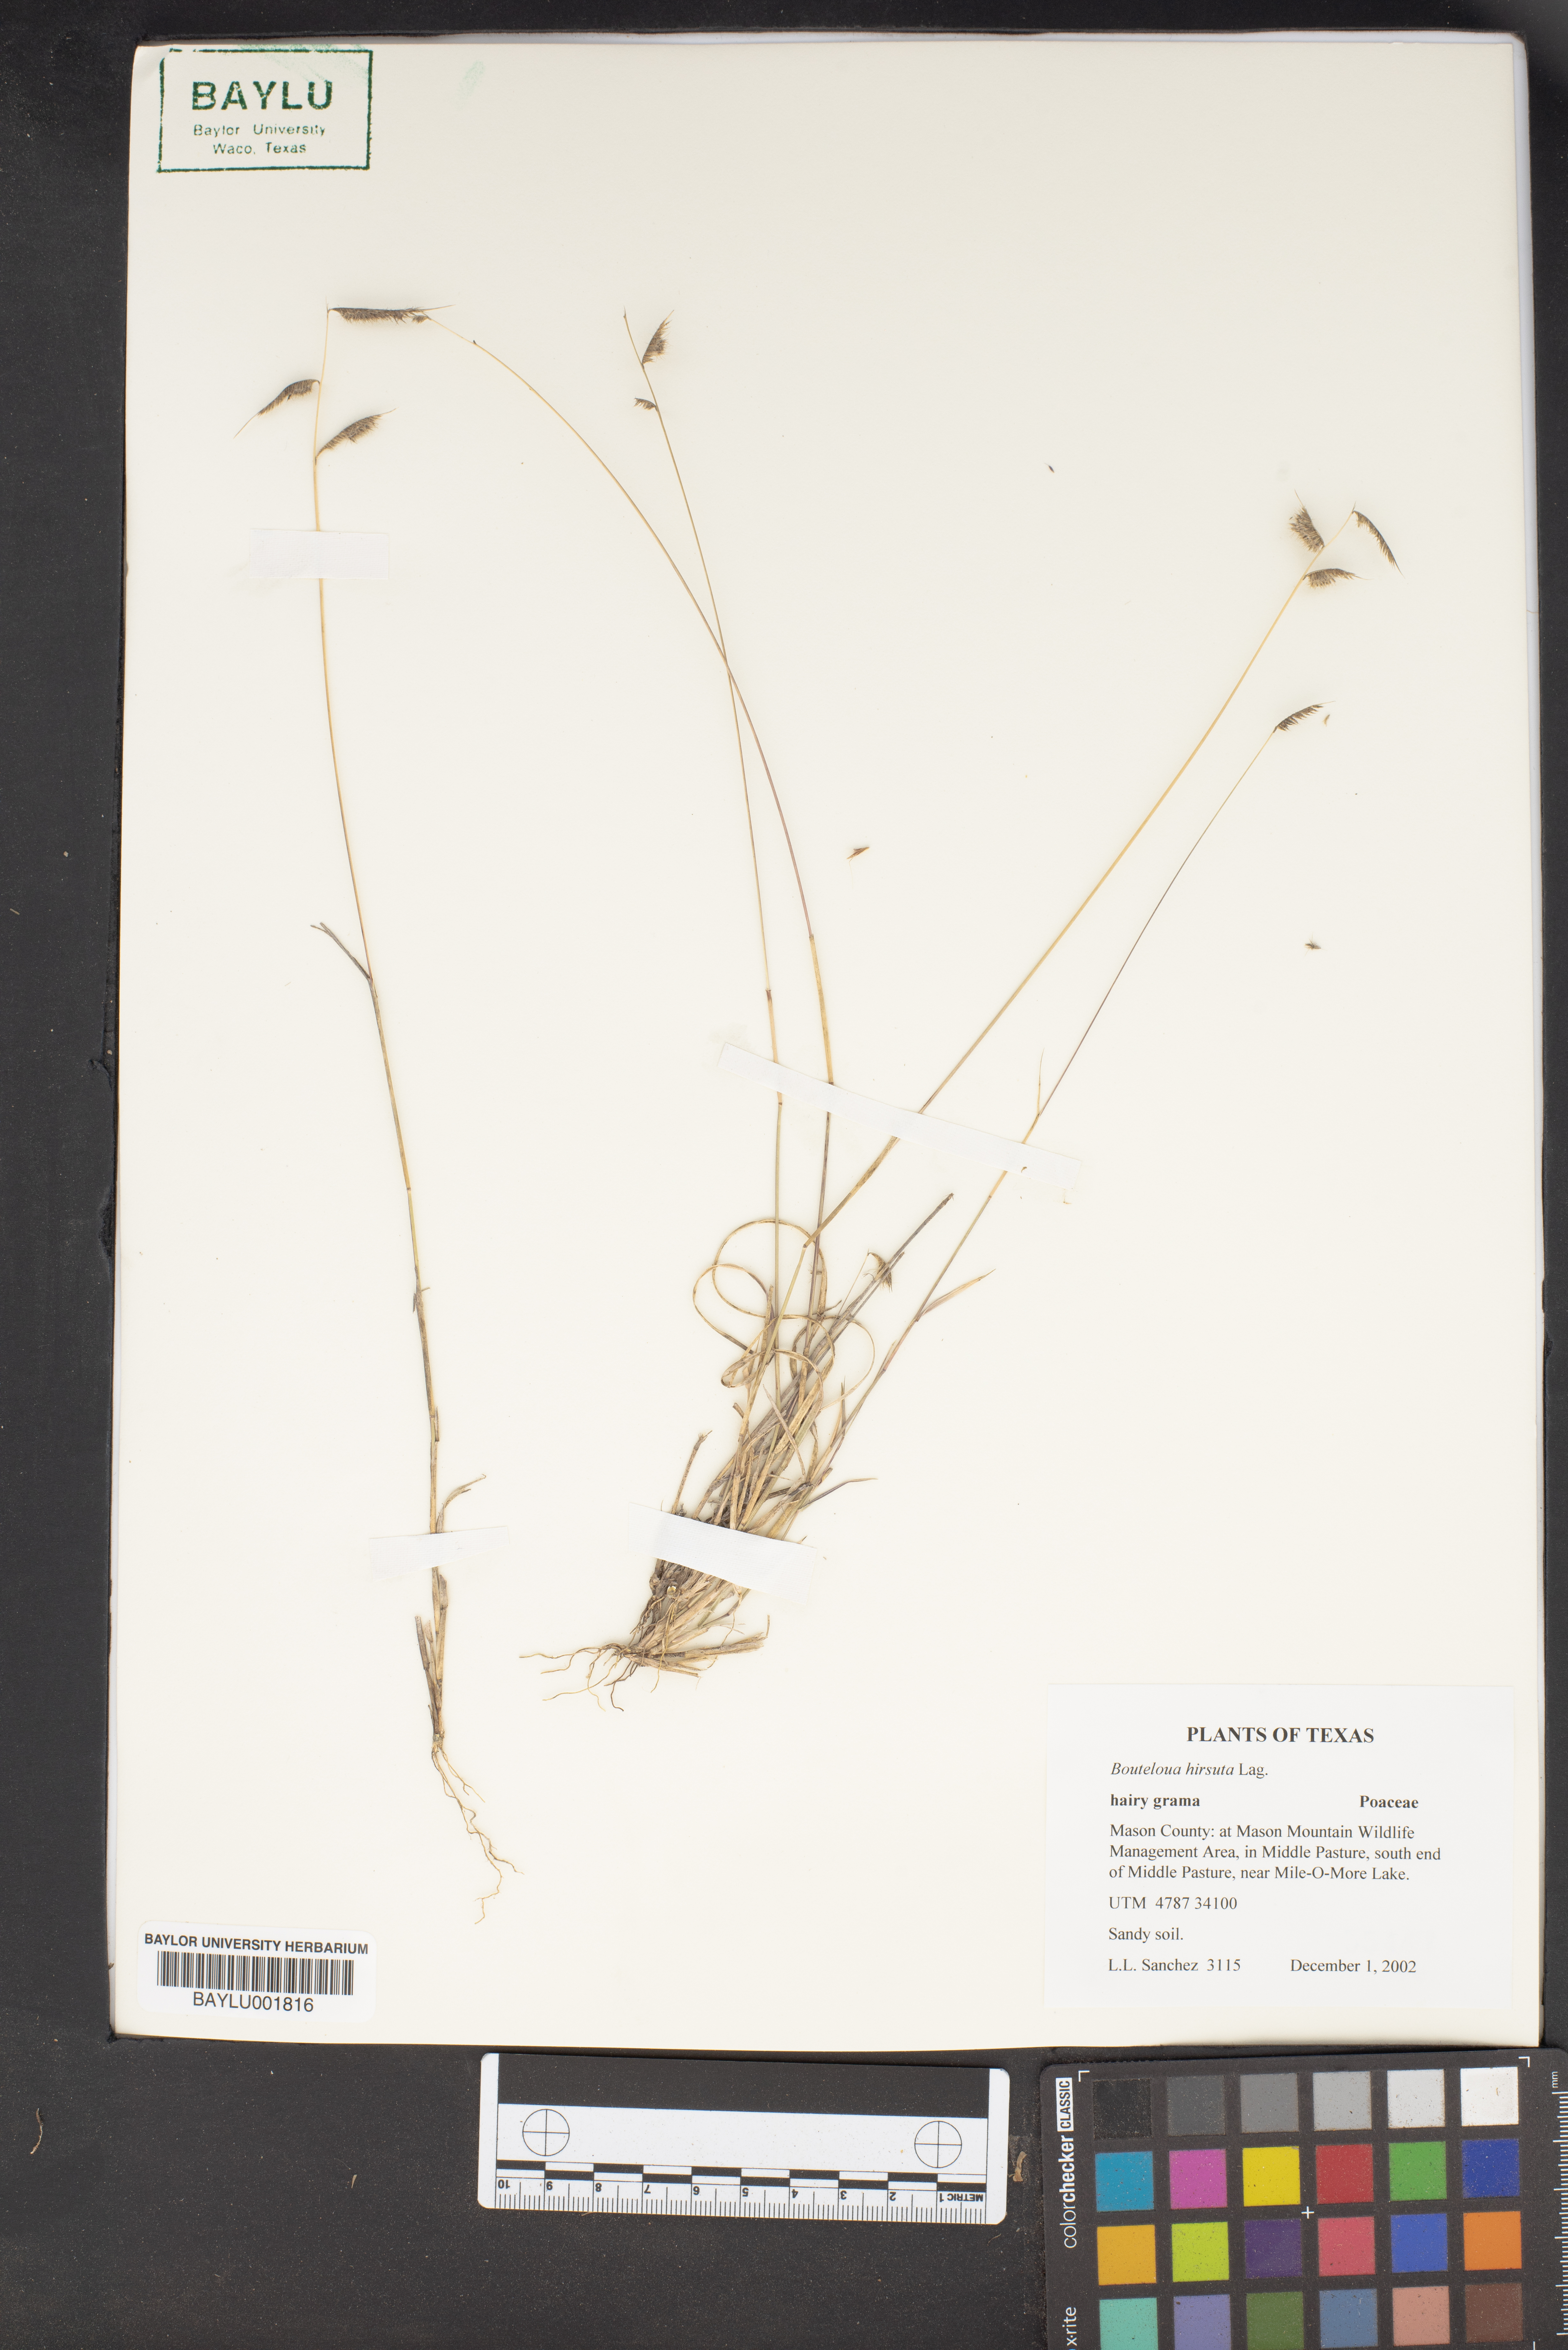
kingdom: Plantae
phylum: Tracheophyta
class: Liliopsida
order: Poales
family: Poaceae
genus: Bouteloua
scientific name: Bouteloua hirsuta
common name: Hairy grama
